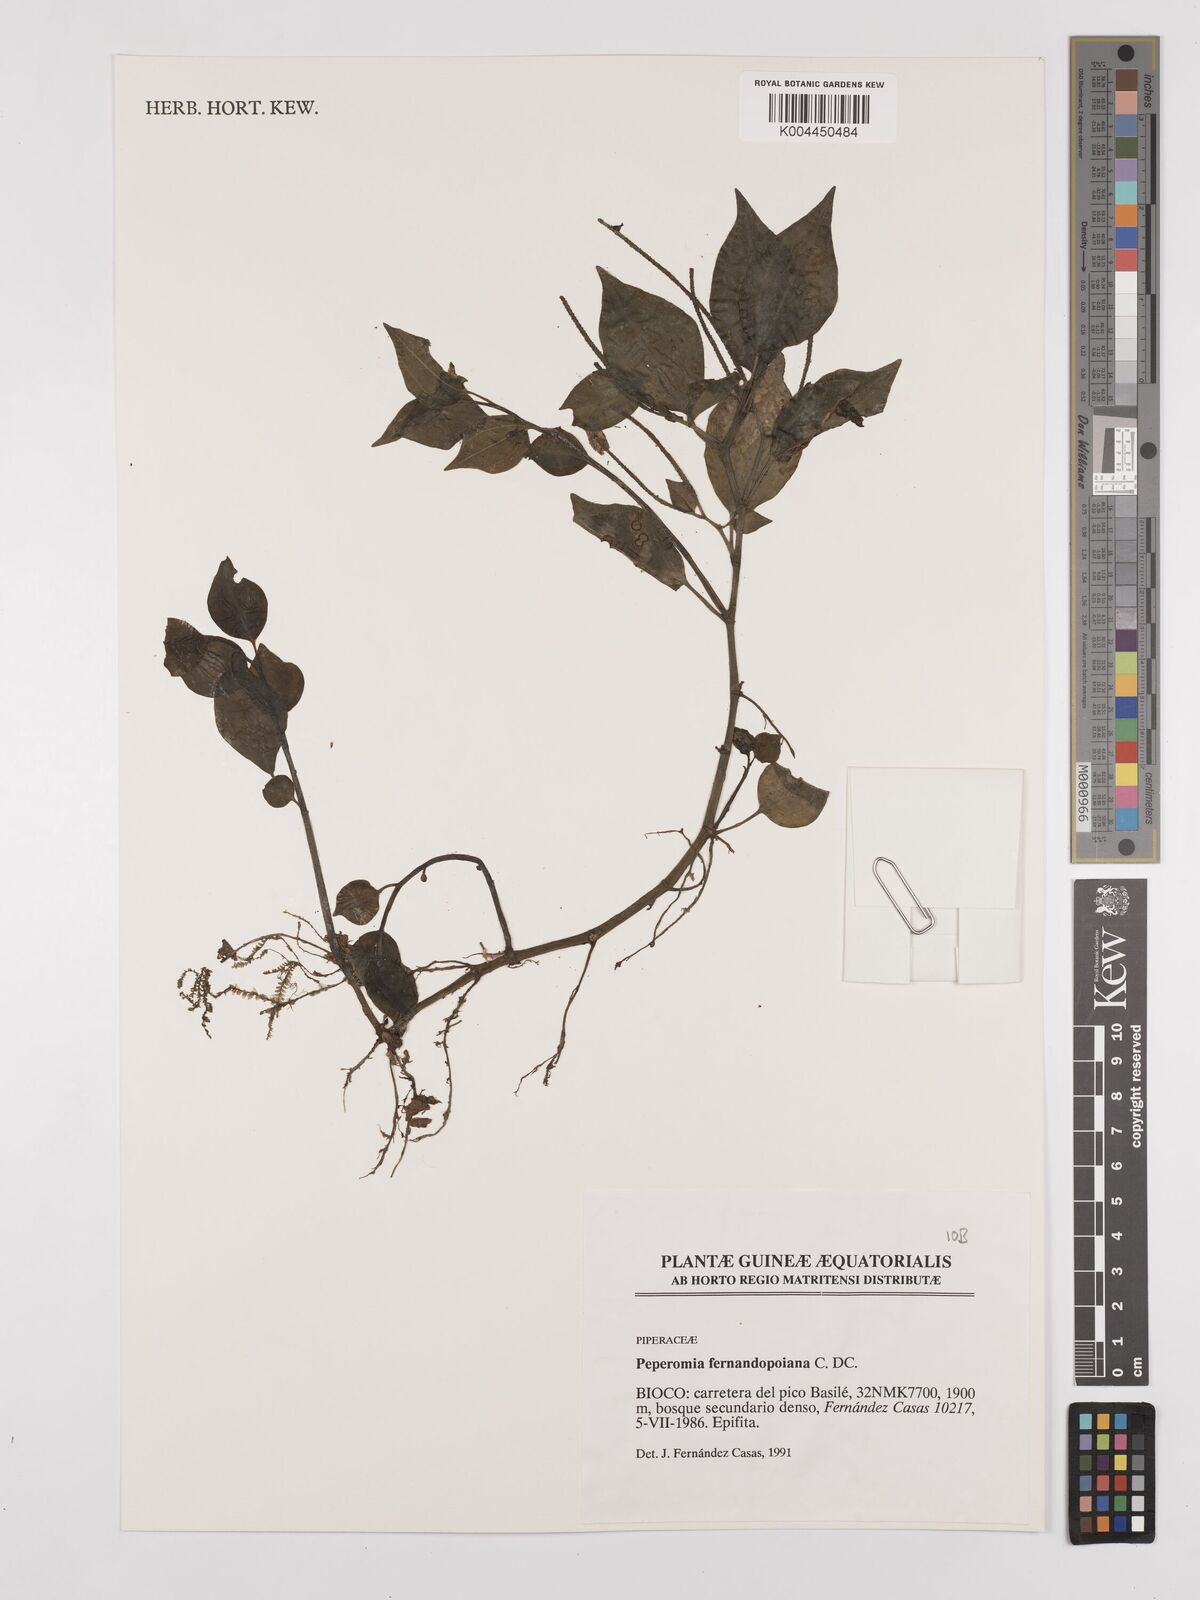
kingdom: Plantae
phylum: Tracheophyta
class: Magnoliopsida
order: Piperales
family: Piperaceae
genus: Peperomia
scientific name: Peperomia fernandopoiana
